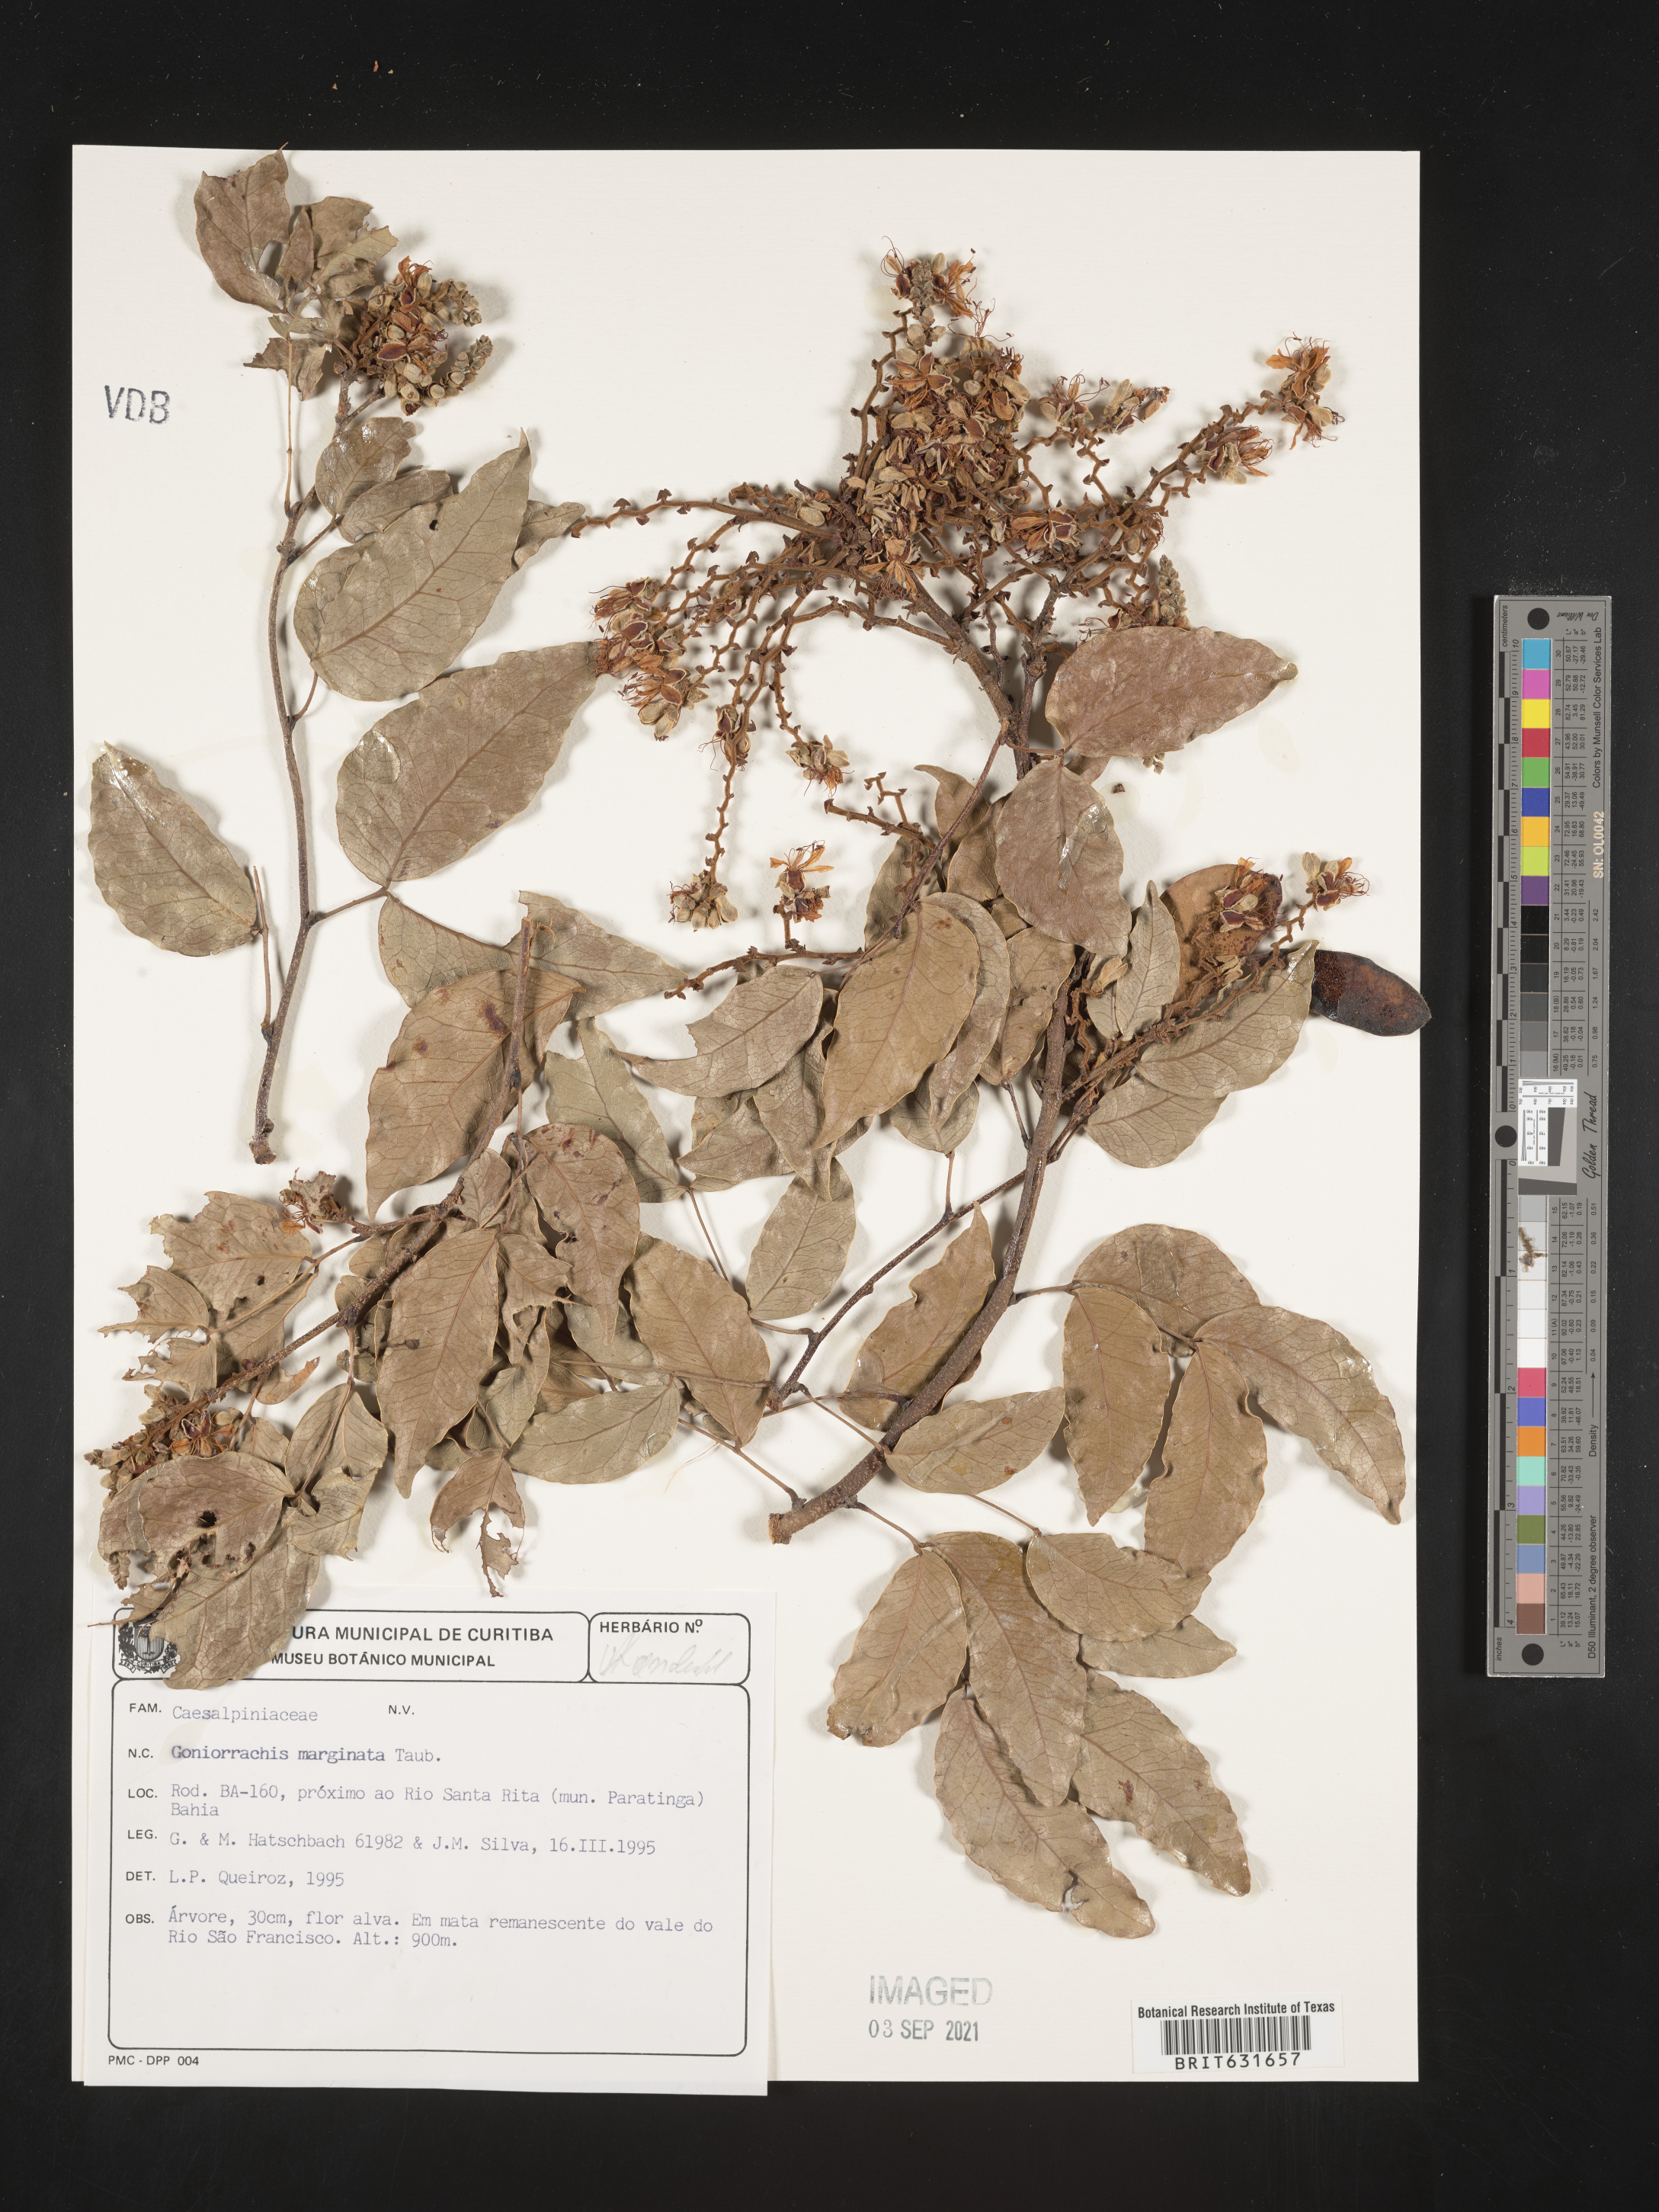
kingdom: Plantae
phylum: Tracheophyta
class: Magnoliopsida
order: Fabales
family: Fabaceae
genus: Goniorrhachis
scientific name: Goniorrhachis marginata
